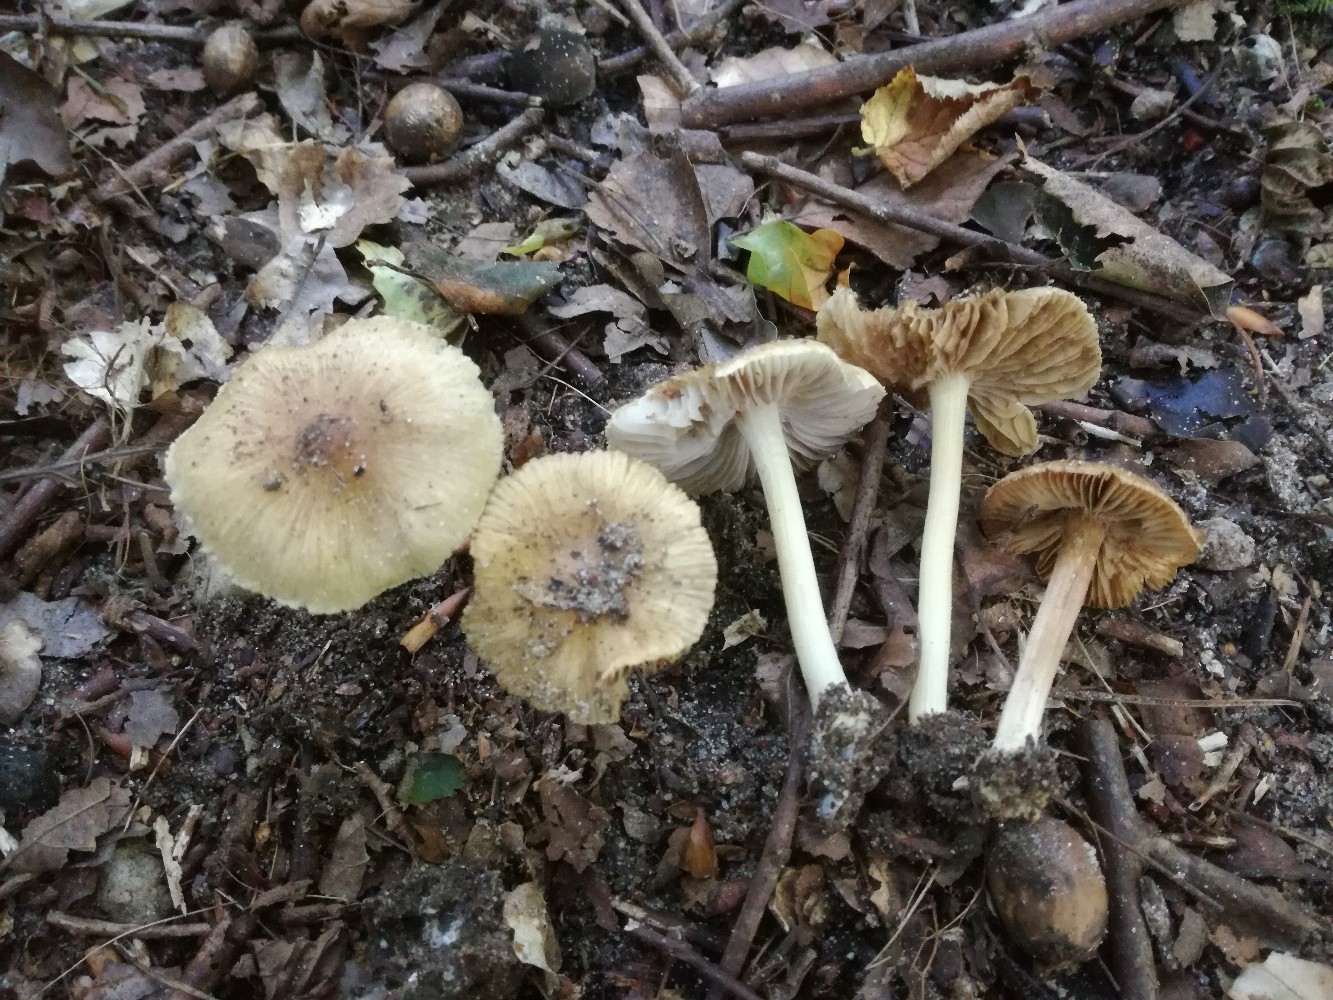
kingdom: Fungi
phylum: Basidiomycota
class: Agaricomycetes
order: Agaricales
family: Inocybaceae
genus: Inocybe
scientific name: Inocybe vaurasii
